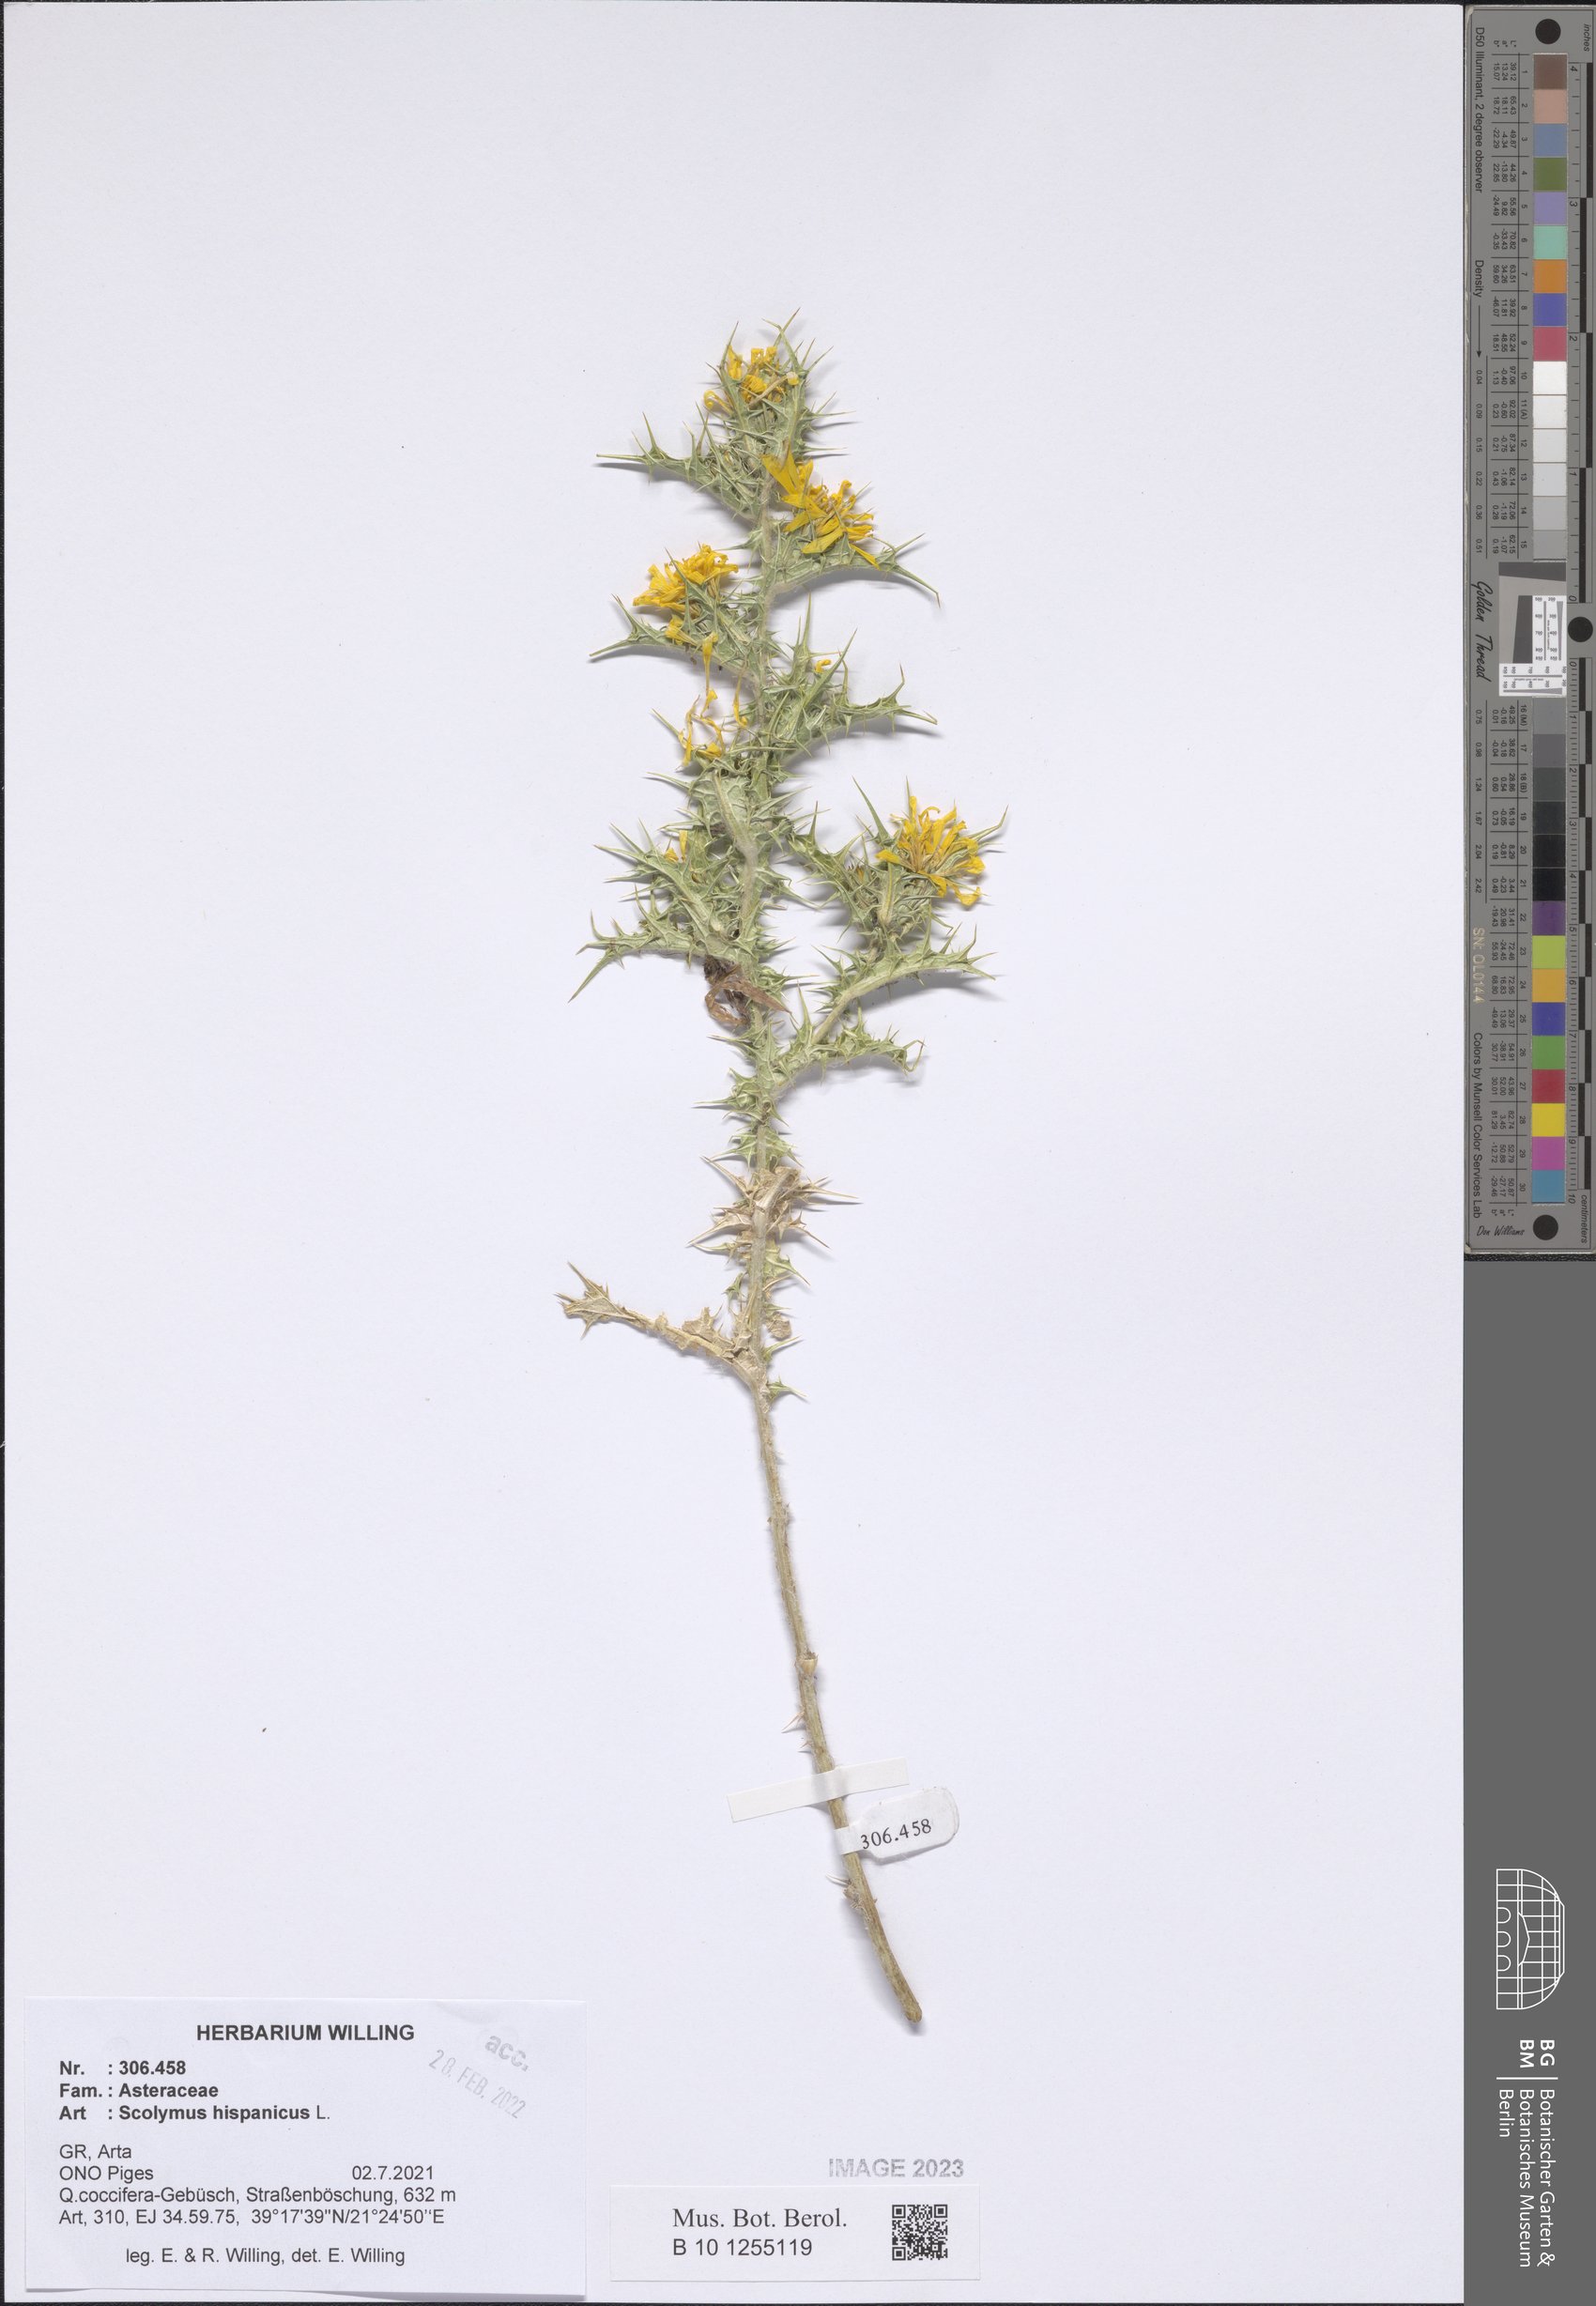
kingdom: Plantae
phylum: Tracheophyta
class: Magnoliopsida
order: Asterales
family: Asteraceae
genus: Scolymus
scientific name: Scolymus hispanicus
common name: Golden thistle
